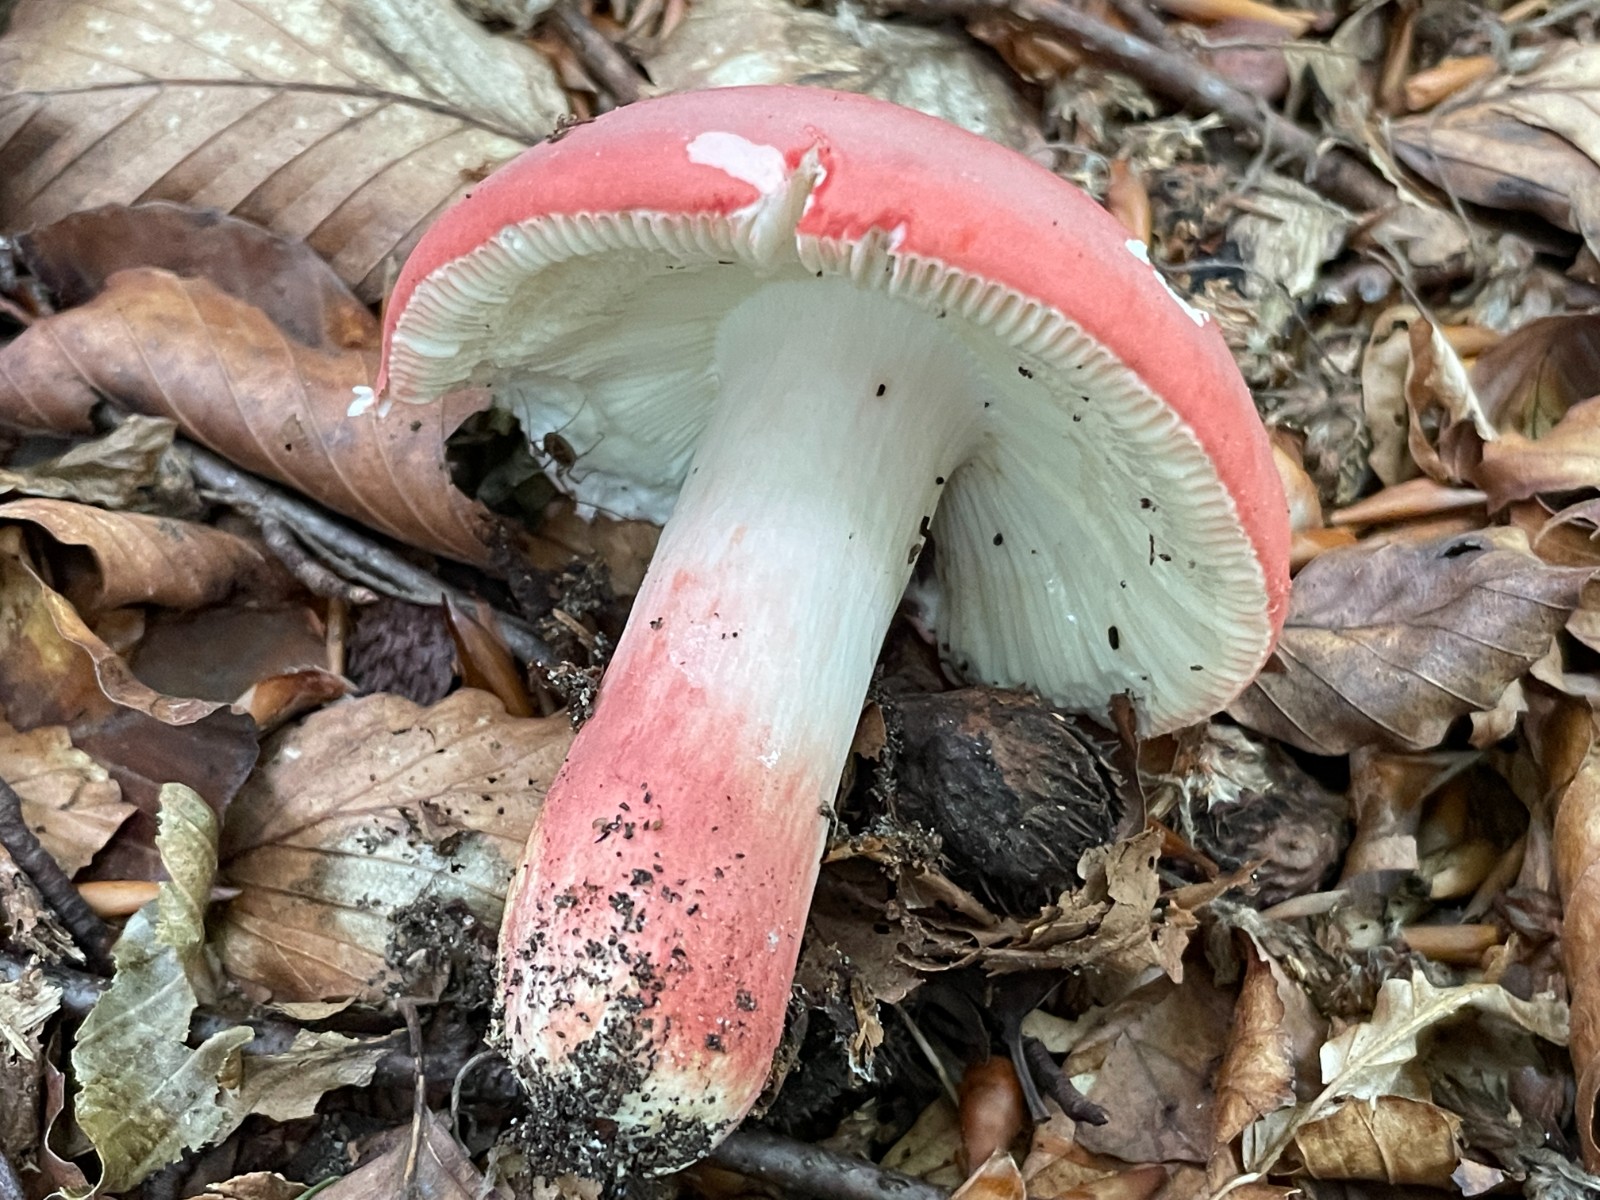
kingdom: Fungi
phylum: Basidiomycota
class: Agaricomycetes
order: Russulales
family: Russulaceae
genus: Russula
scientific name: Russula rosea
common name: fastkødet skørhat
